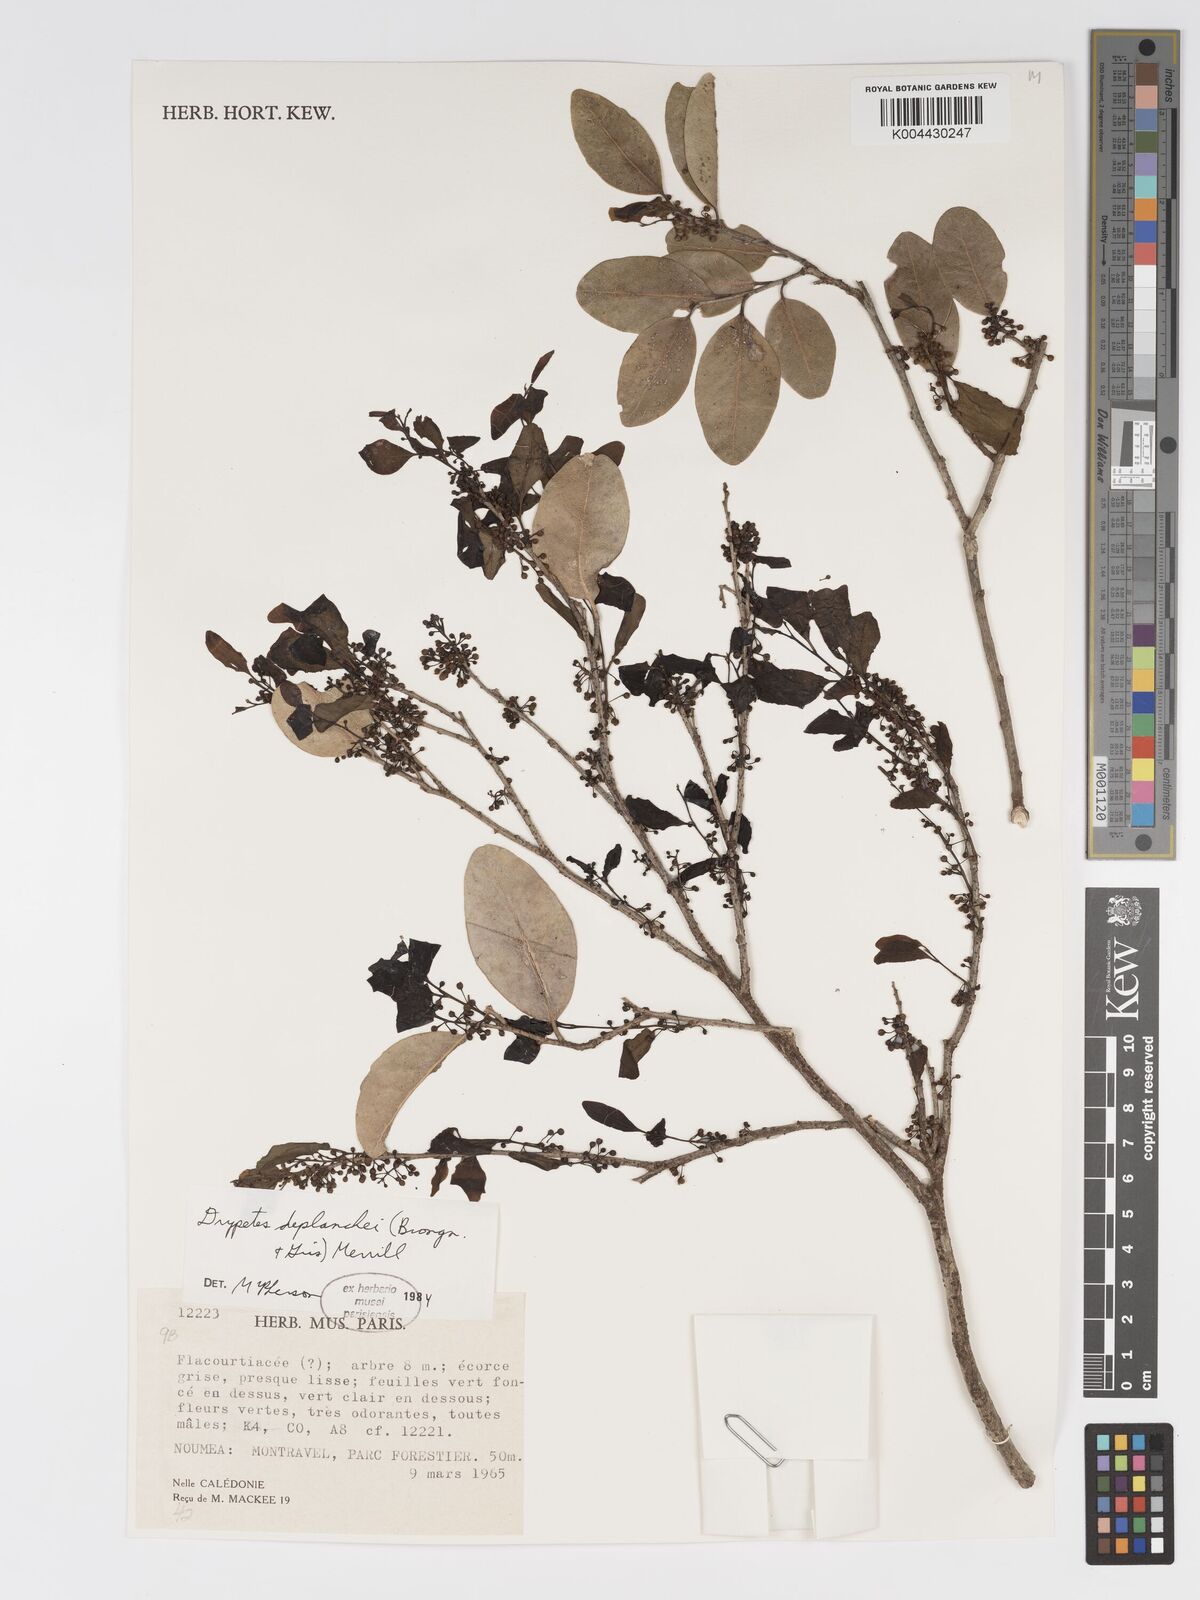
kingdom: Plantae
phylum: Tracheophyta
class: Magnoliopsida
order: Malpighiales
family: Putranjivaceae
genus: Drypetes
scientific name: Drypetes deplanchei
